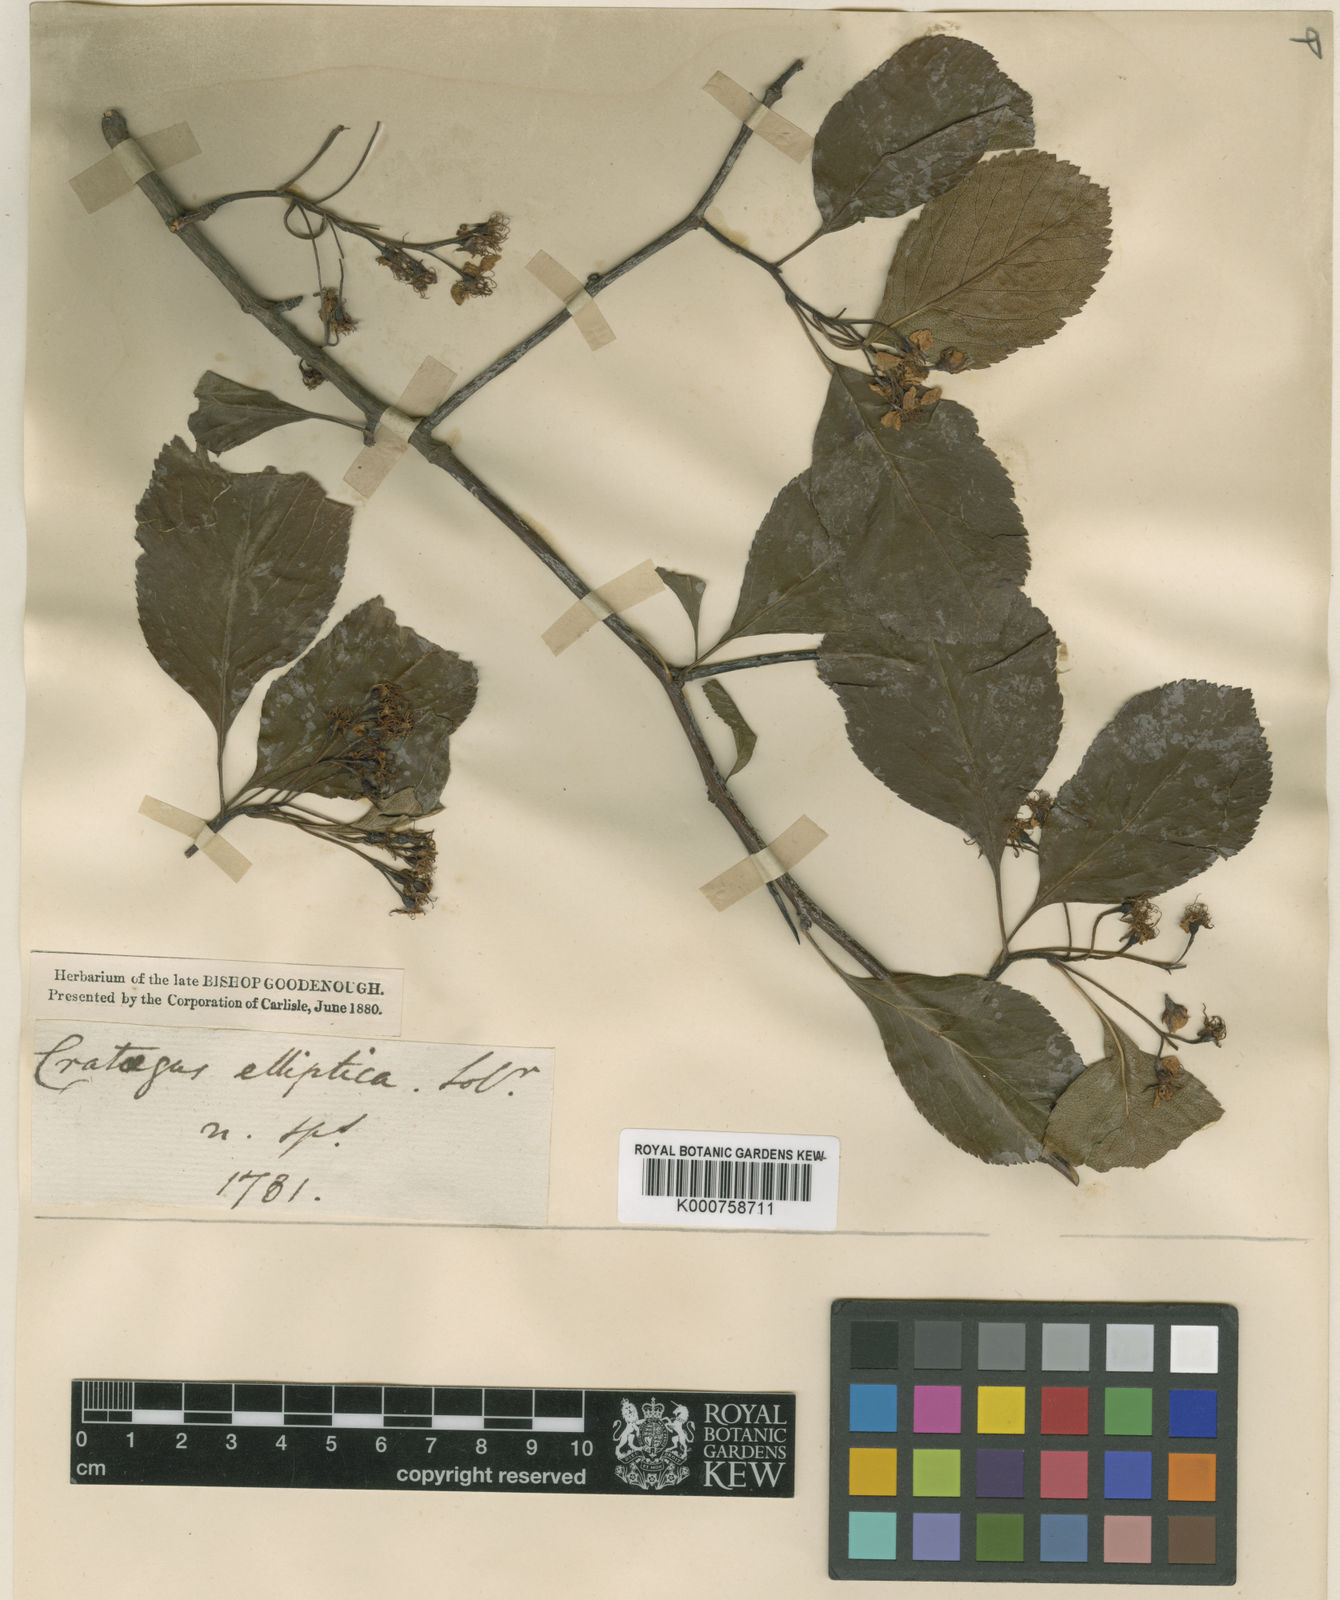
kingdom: Plantae
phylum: Tracheophyta
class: Magnoliopsida
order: Rosales
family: Rosaceae
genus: Crataegus
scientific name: Crataegus crus-galli
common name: Cockspurthorn
